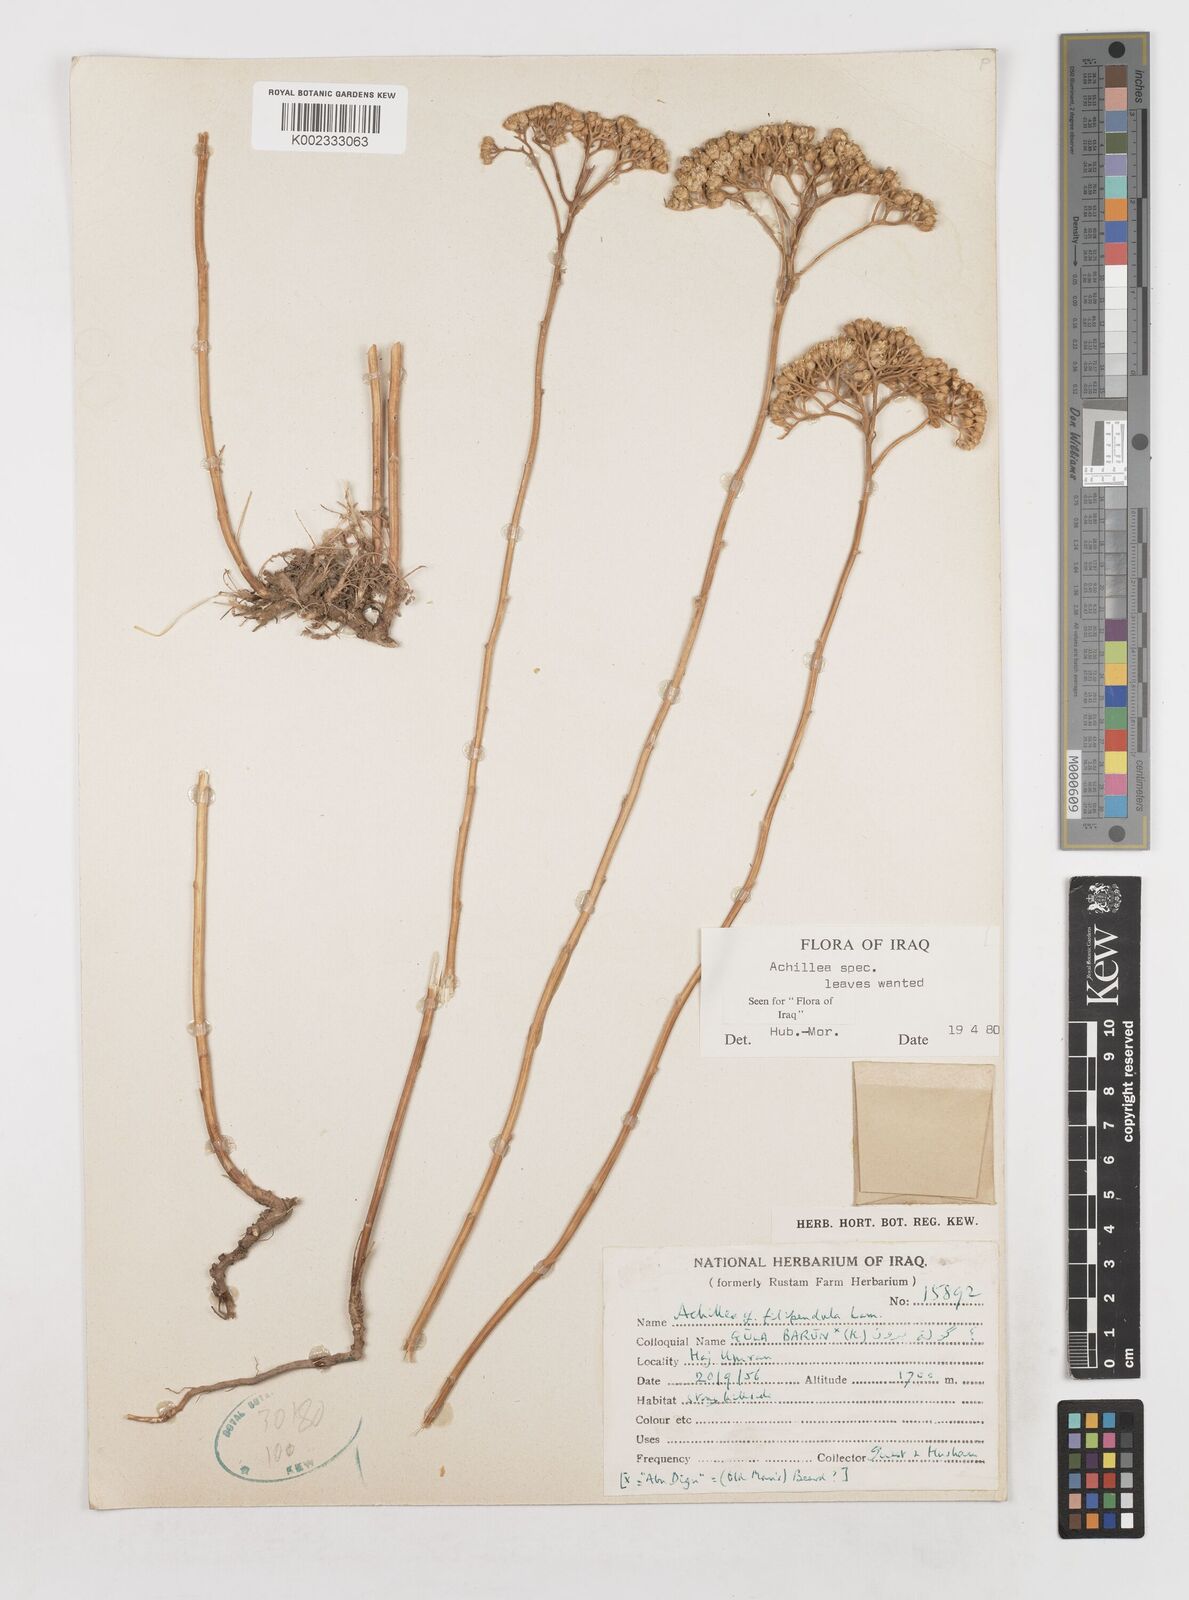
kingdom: Plantae
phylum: Tracheophyta
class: Magnoliopsida
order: Asterales
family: Asteraceae
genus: Achillea
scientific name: Achillea
